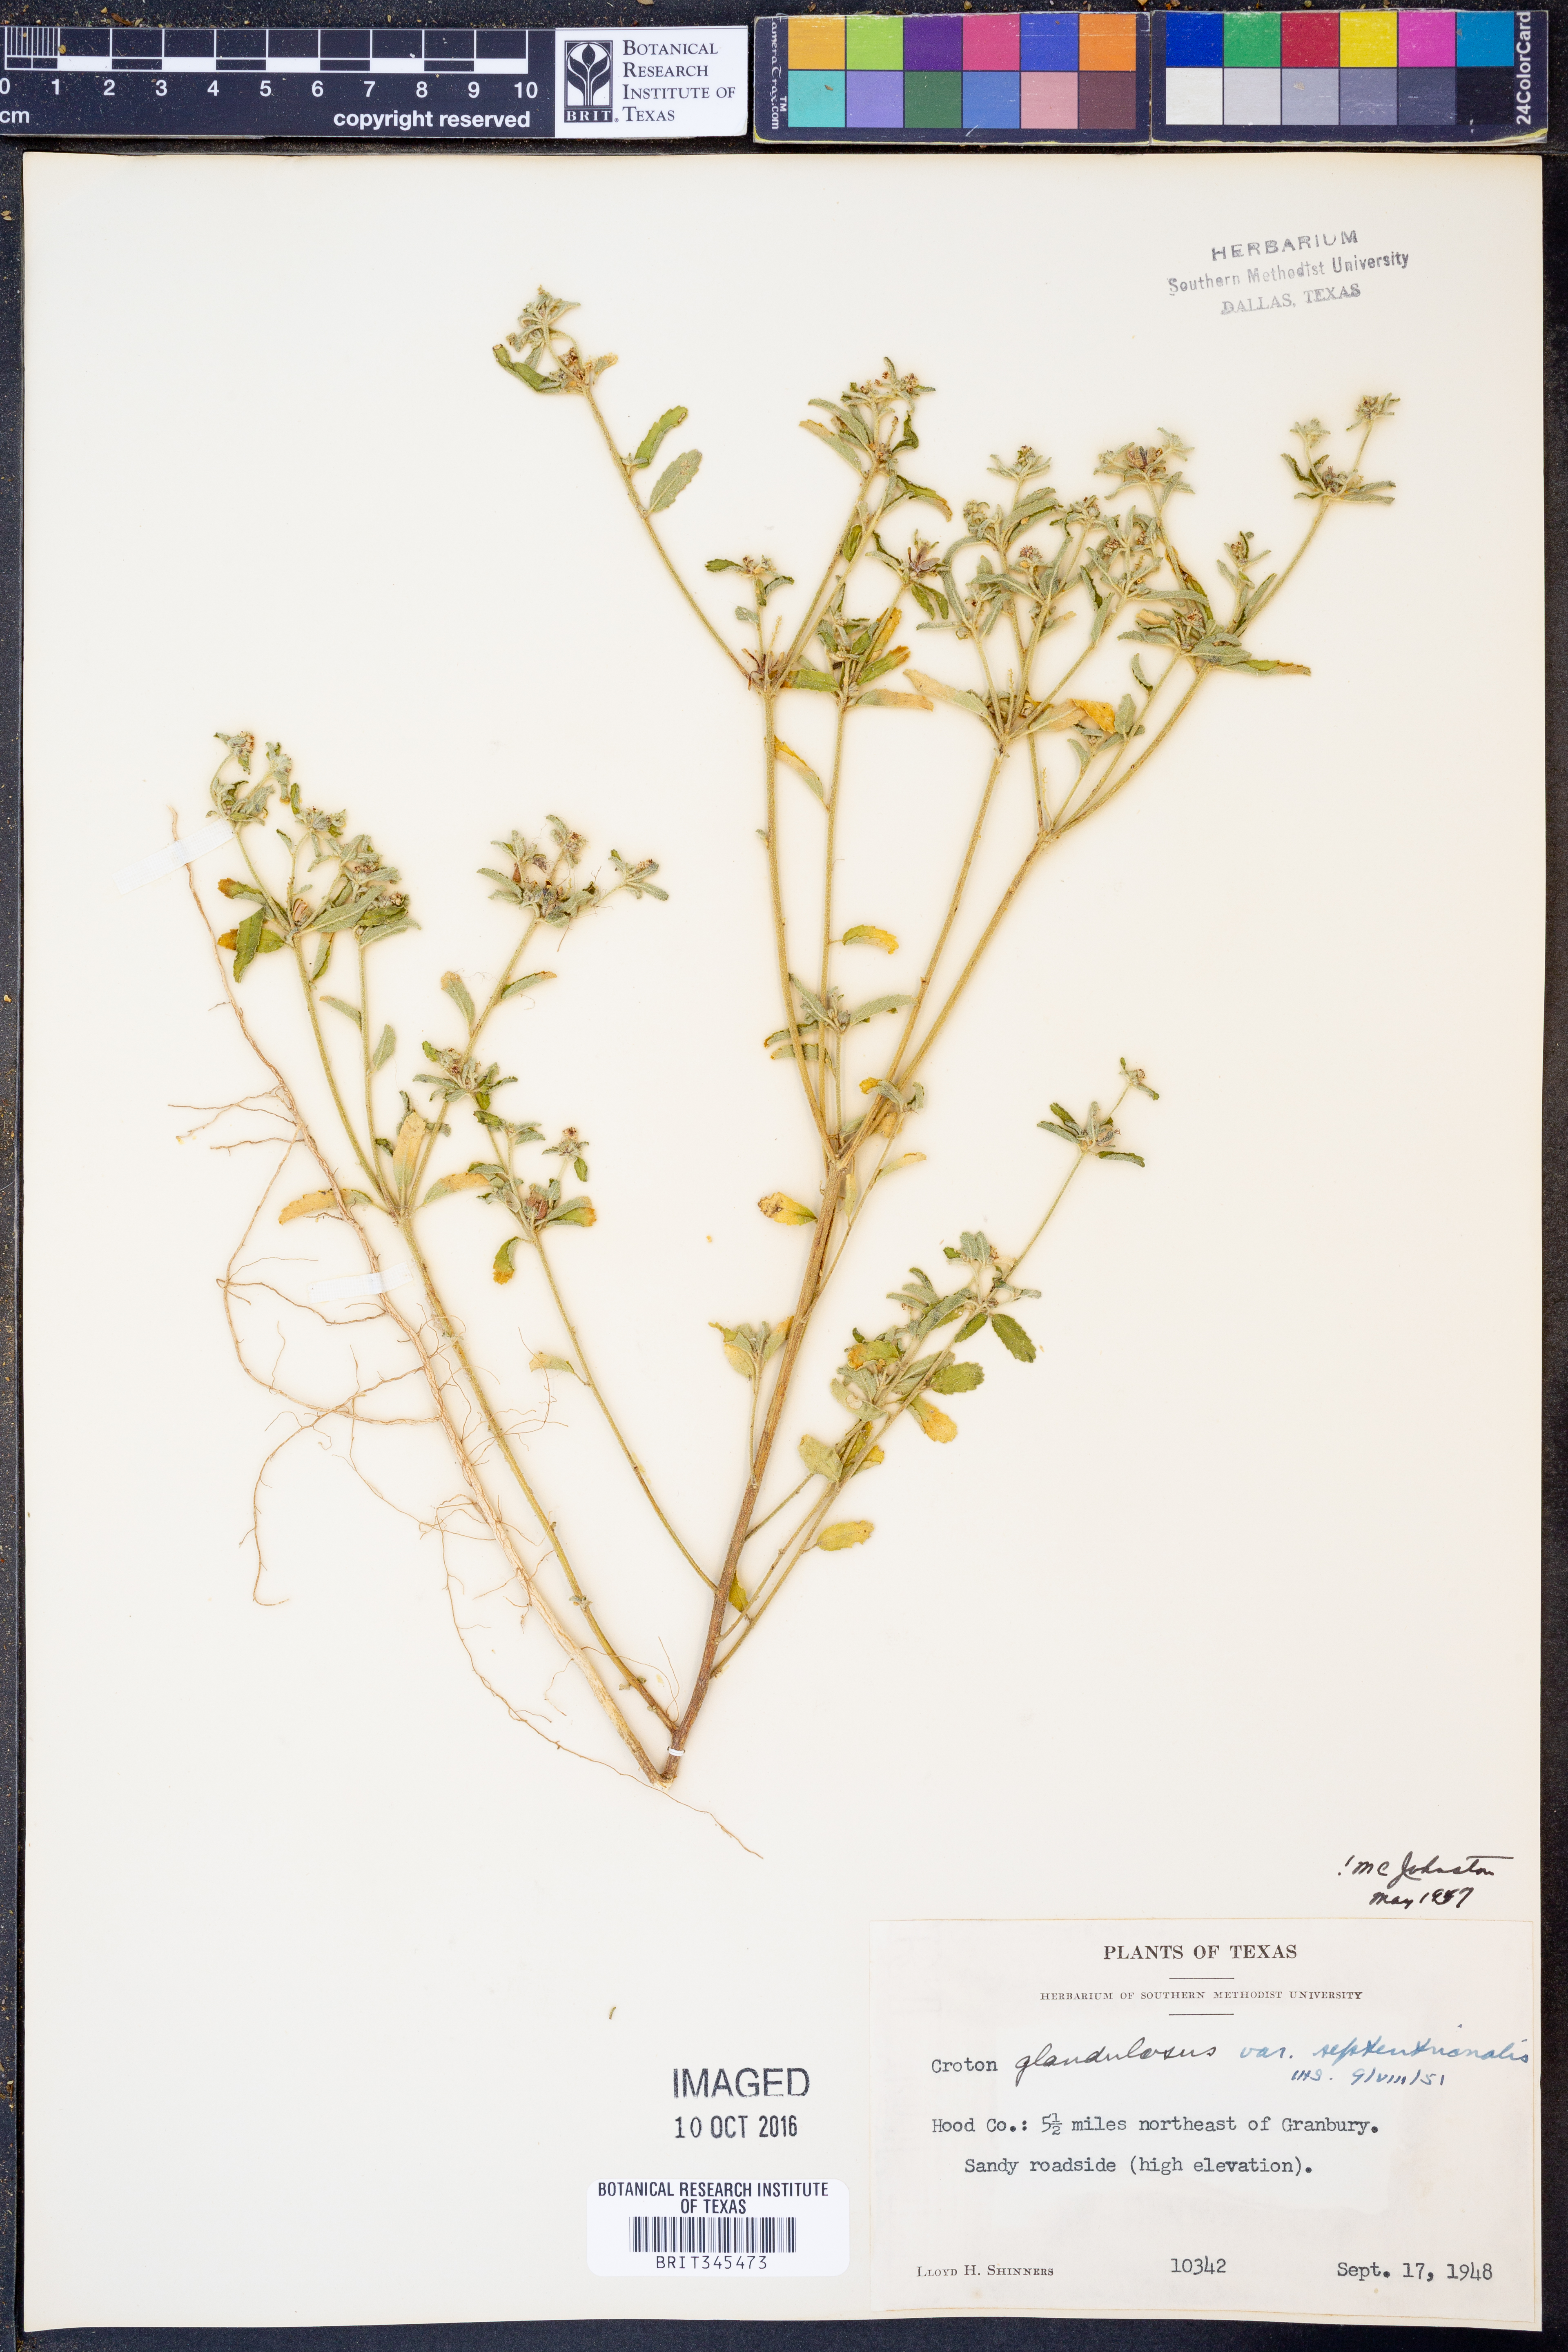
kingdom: Plantae
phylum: Tracheophyta
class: Magnoliopsida
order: Malpighiales
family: Euphorbiaceae
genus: Croton
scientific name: Croton glandulosus
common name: Tropic croton
